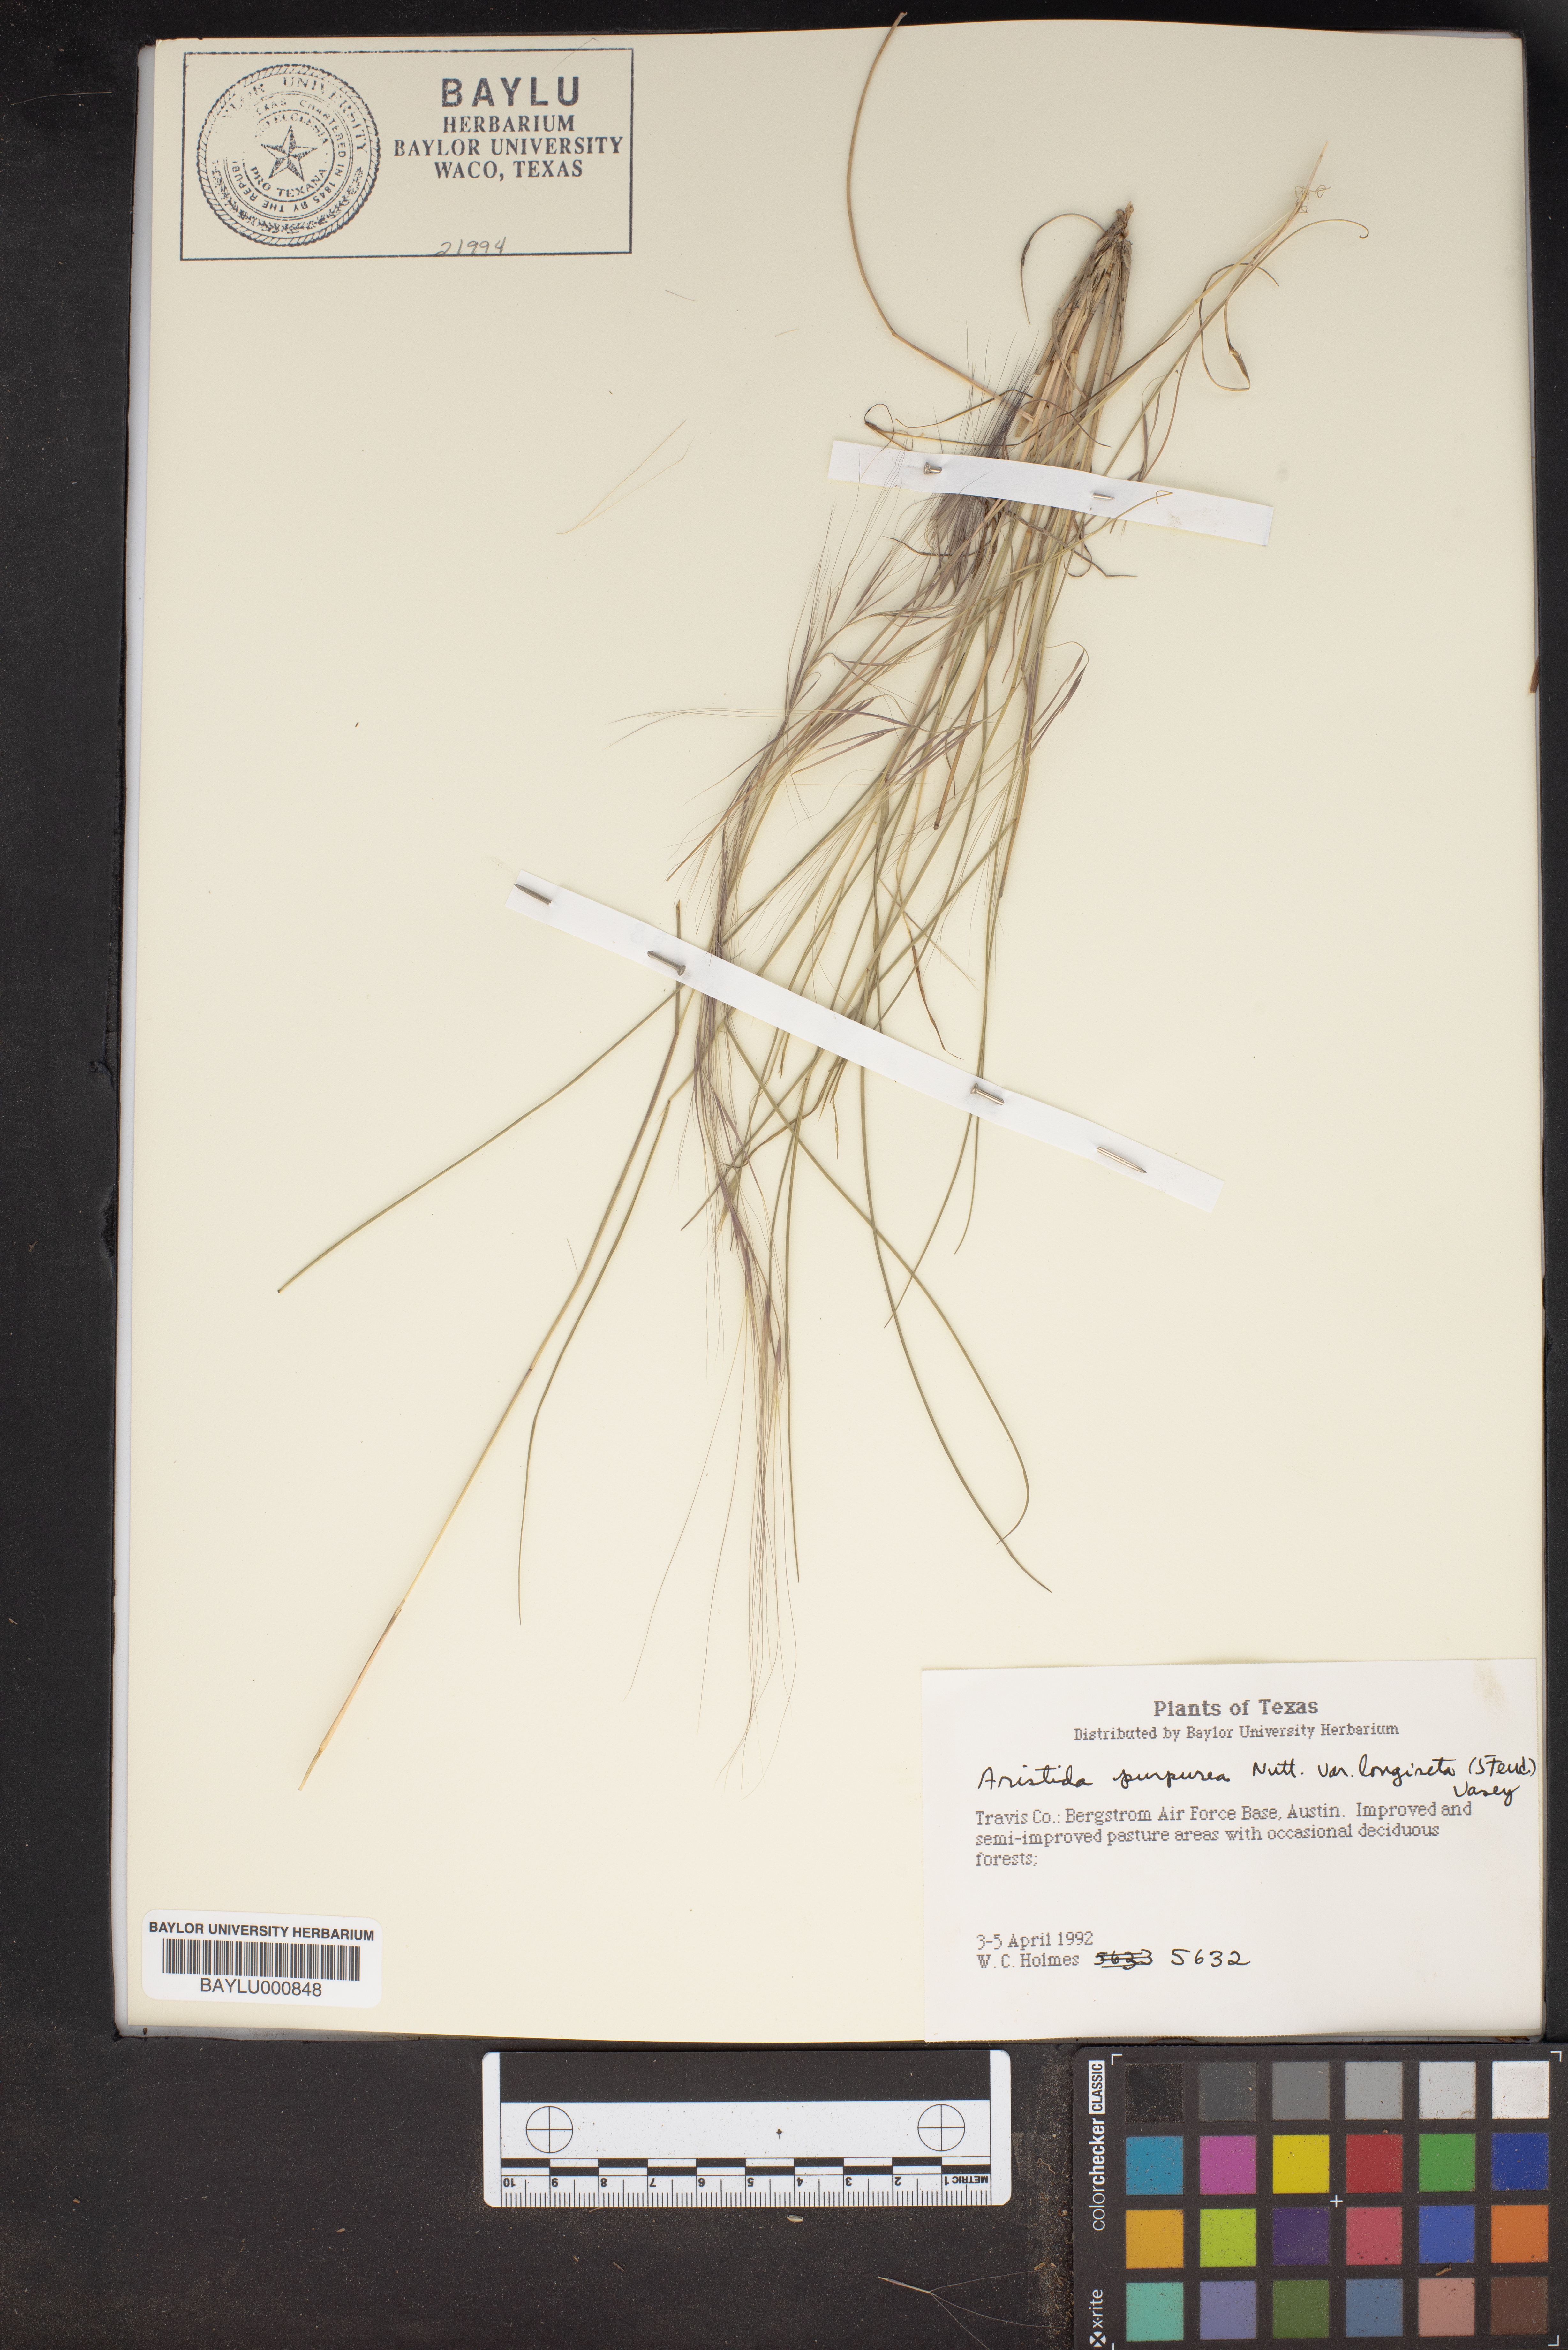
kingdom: Plantae
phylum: Tracheophyta
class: Liliopsida
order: Poales
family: Poaceae
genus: Aristida
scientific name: Aristida purpurea
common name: Purple threeawn
